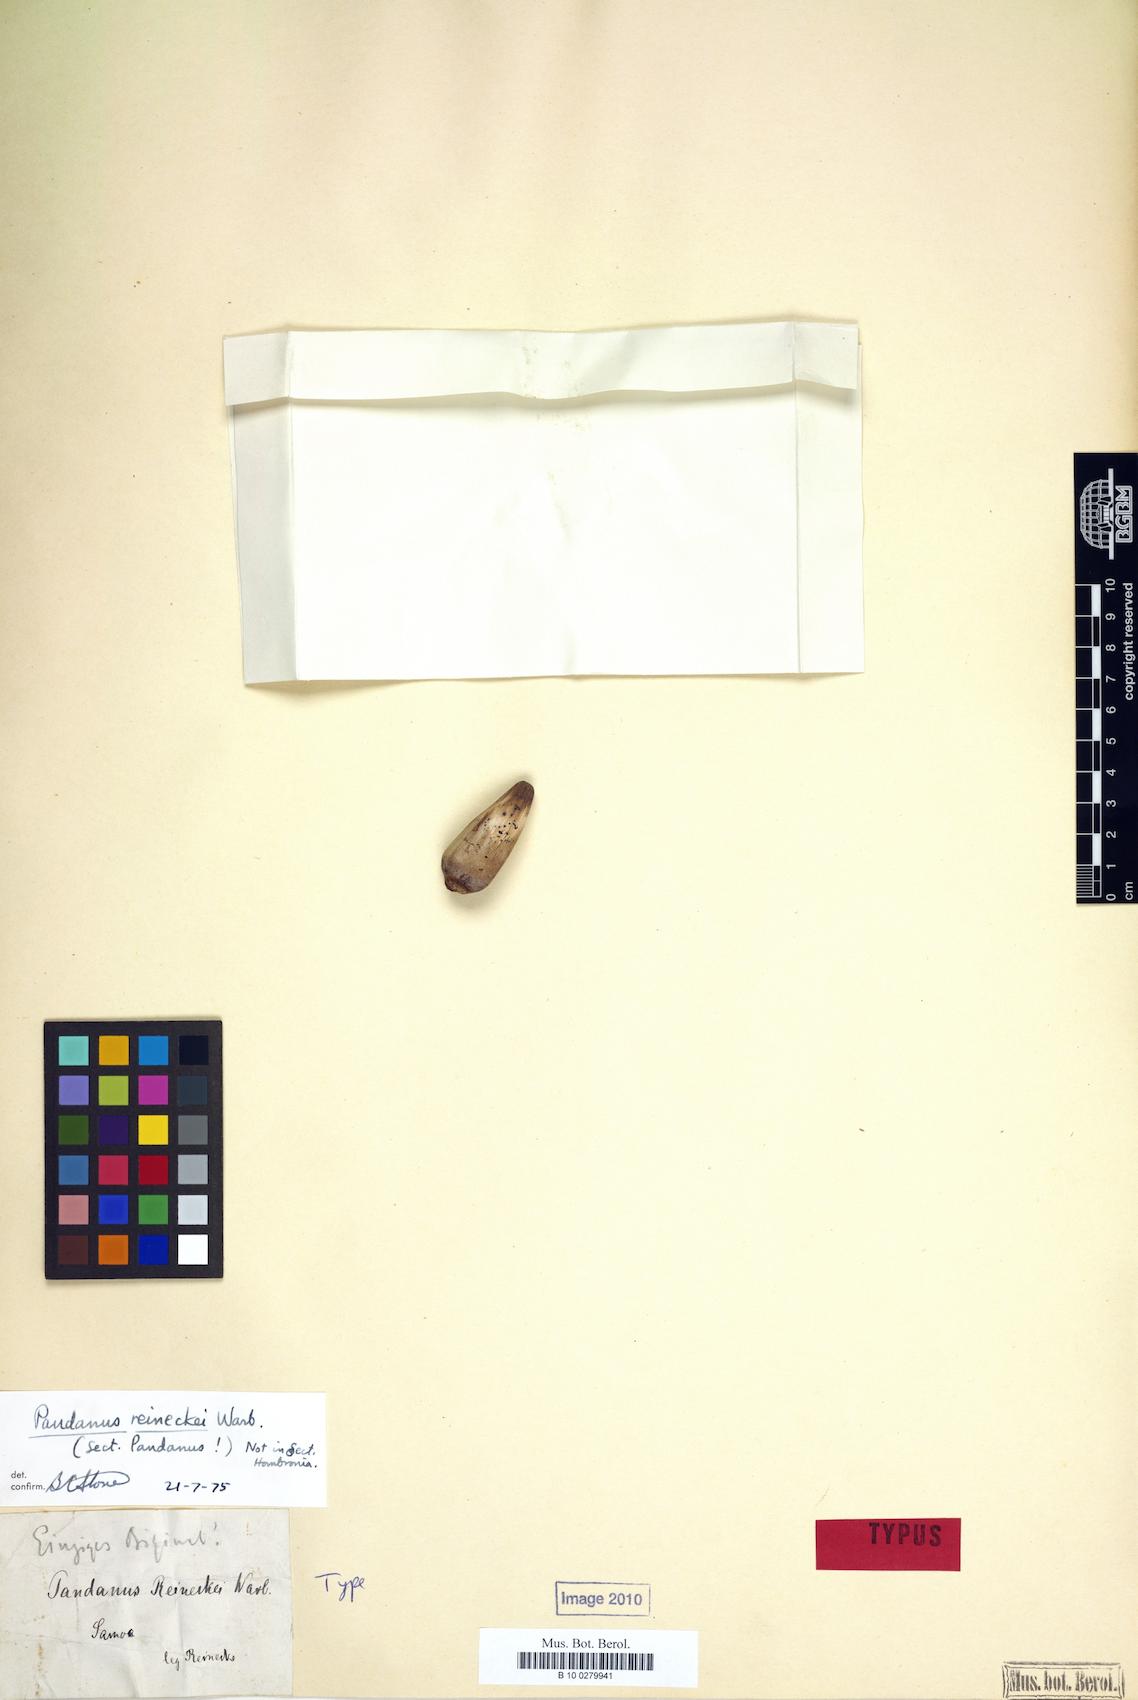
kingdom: Plantae
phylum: Tracheophyta
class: Liliopsida
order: Pandanales
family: Pandanaceae
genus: Pandanus
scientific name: Pandanus reineckei
